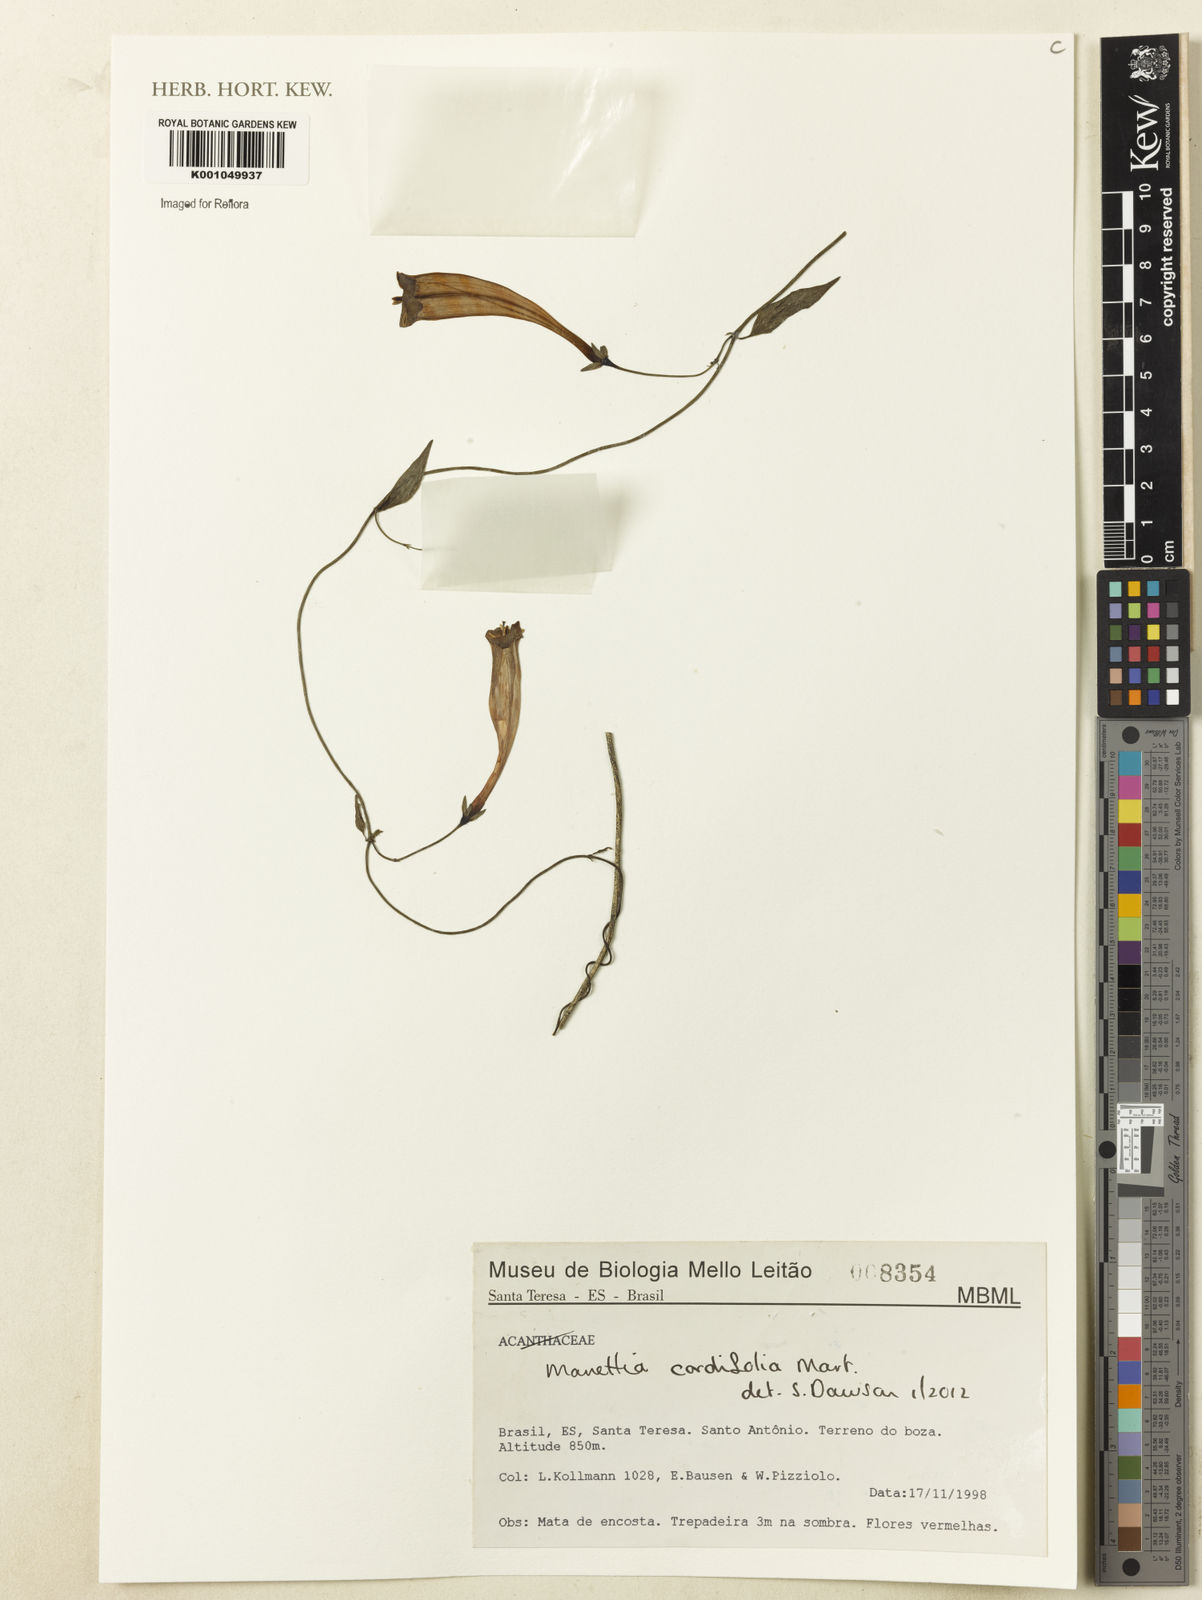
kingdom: Plantae
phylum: Tracheophyta
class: Magnoliopsida
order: Gentianales
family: Rubiaceae
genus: Manettia
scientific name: Manettia cordifolia
